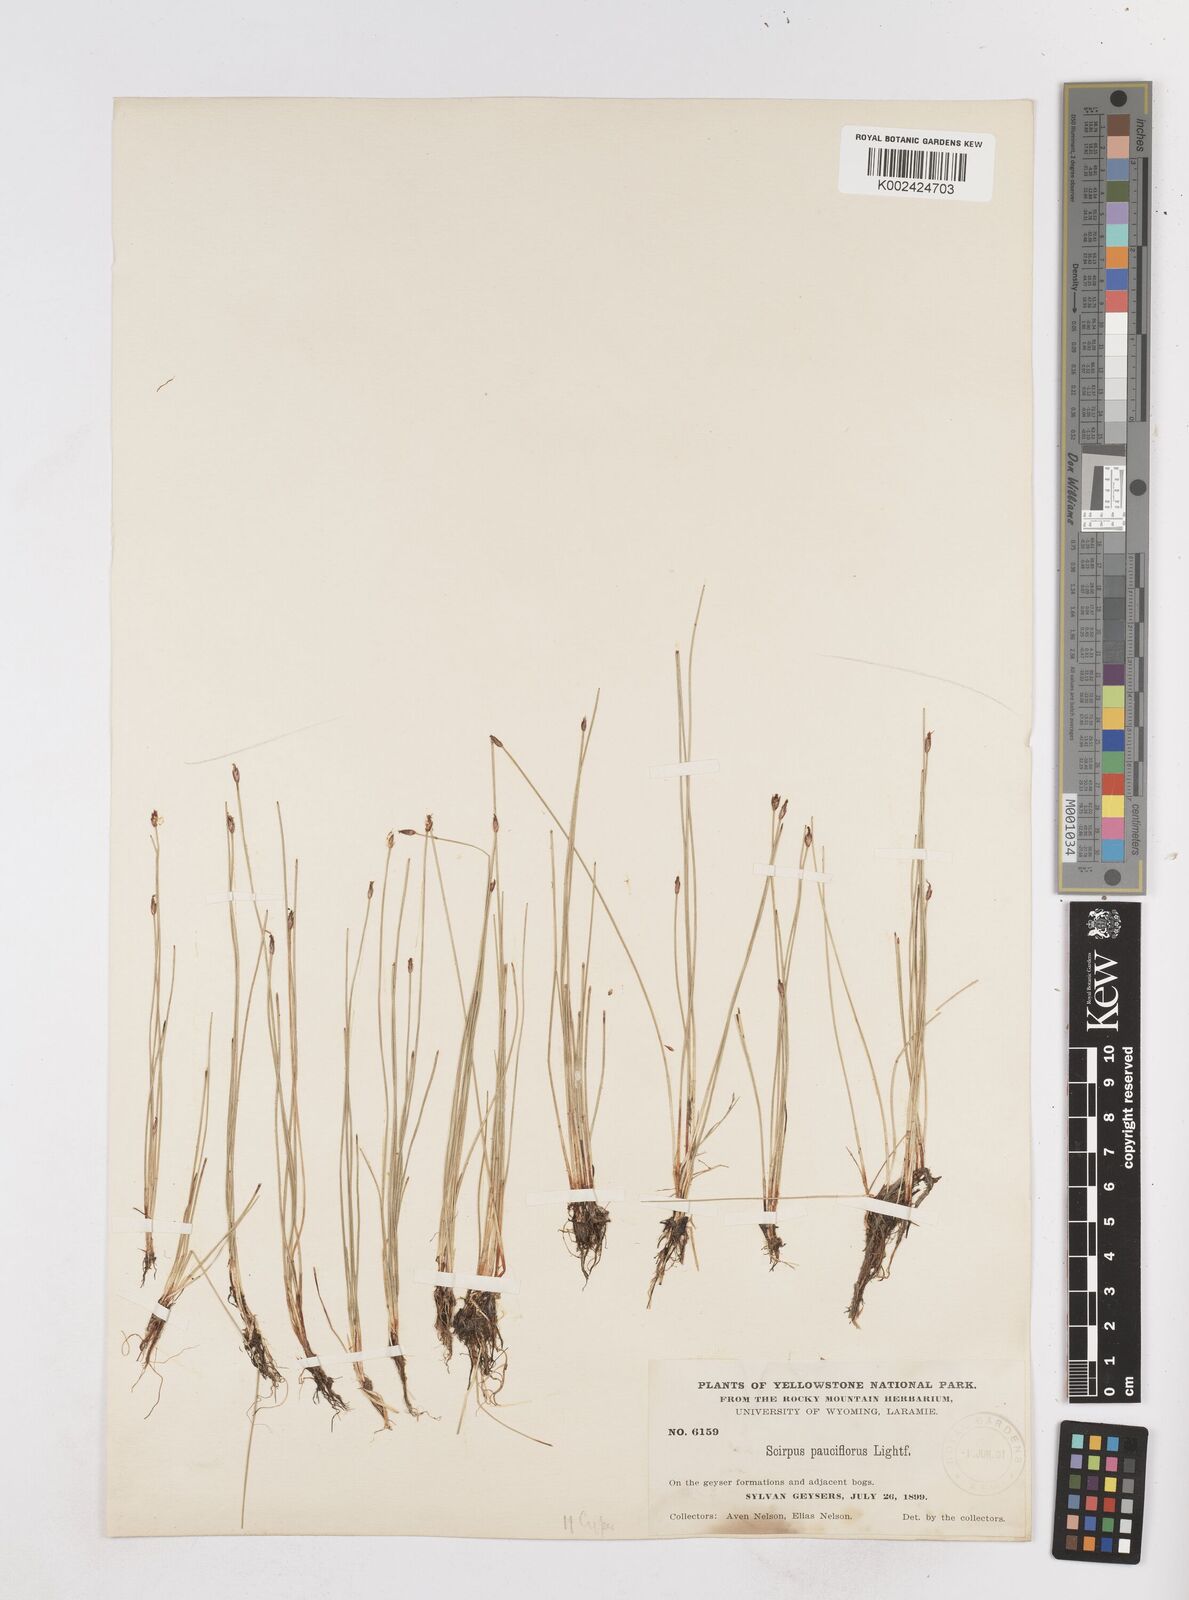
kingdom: Plantae
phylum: Tracheophyta
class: Liliopsida
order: Poales
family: Cyperaceae
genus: Eleocharis
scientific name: Eleocharis quinqueflora
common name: Few-flowered spike-rush
